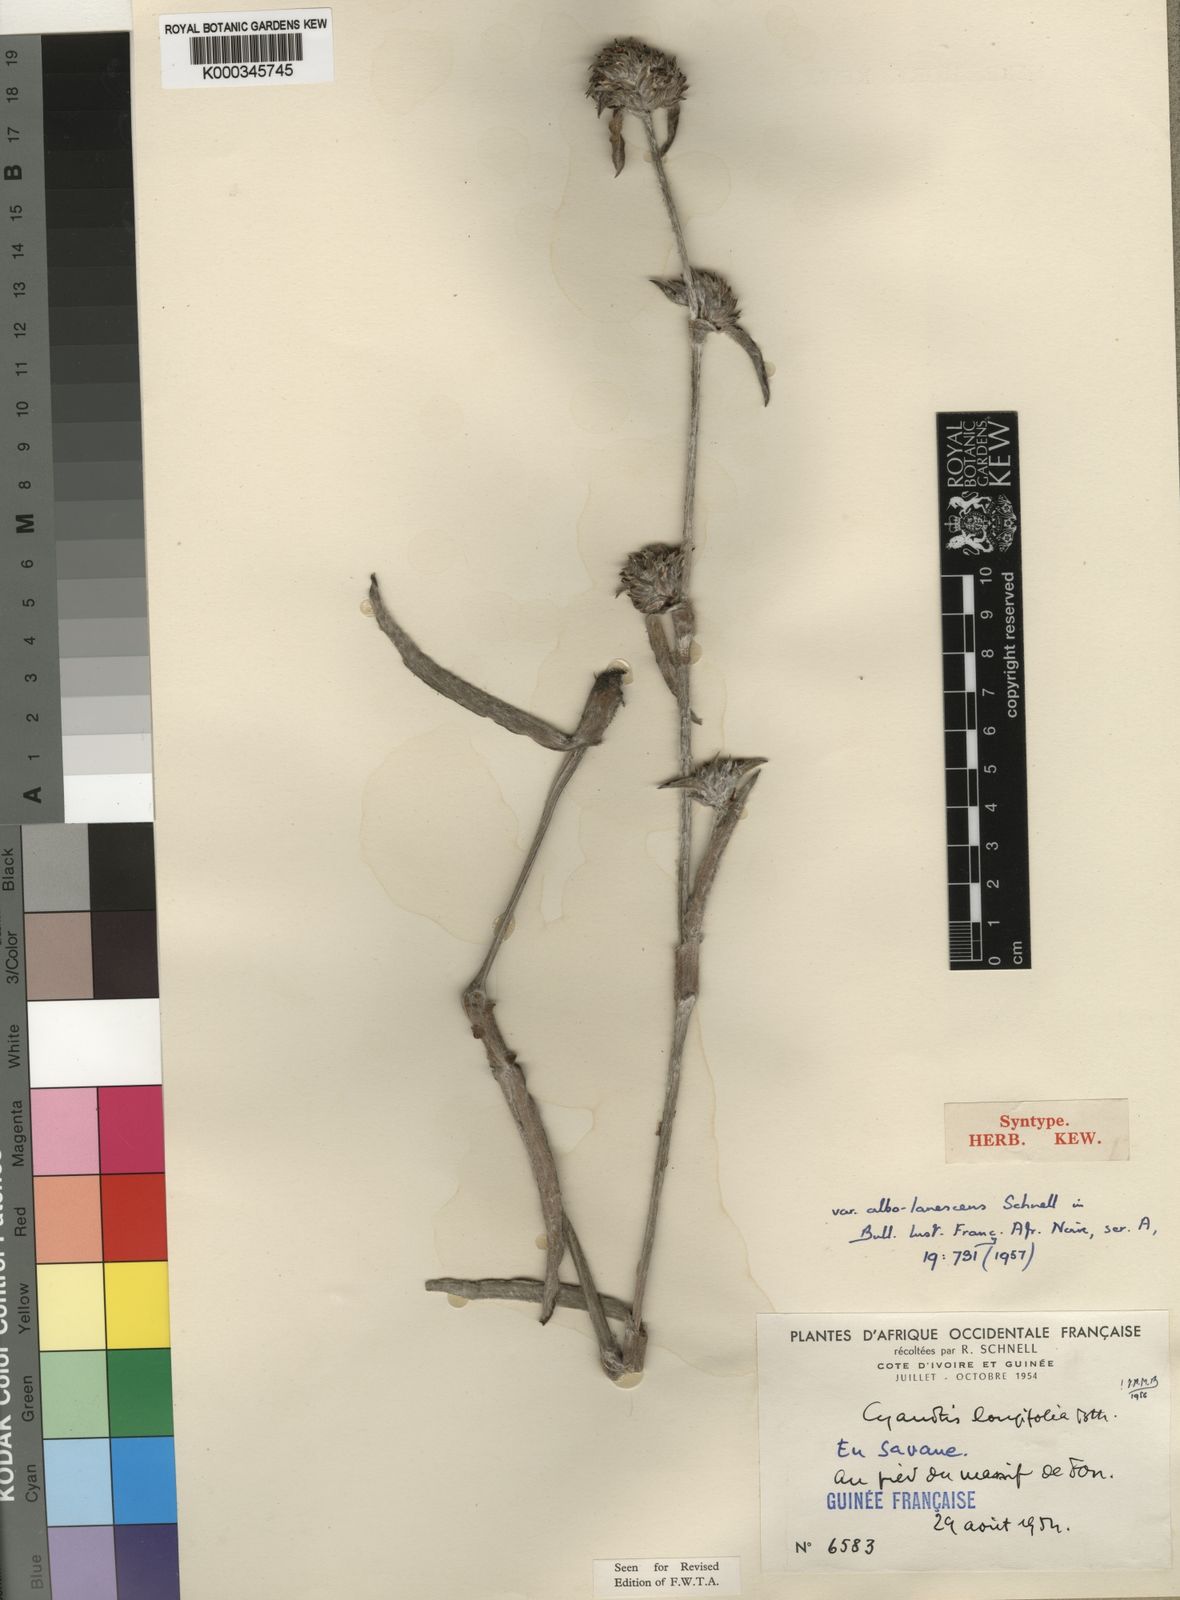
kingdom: Plantae
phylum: Tracheophyta
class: Liliopsida
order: Commelinales
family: Commelinaceae
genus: Cyanotis
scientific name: Cyanotis longifolia
